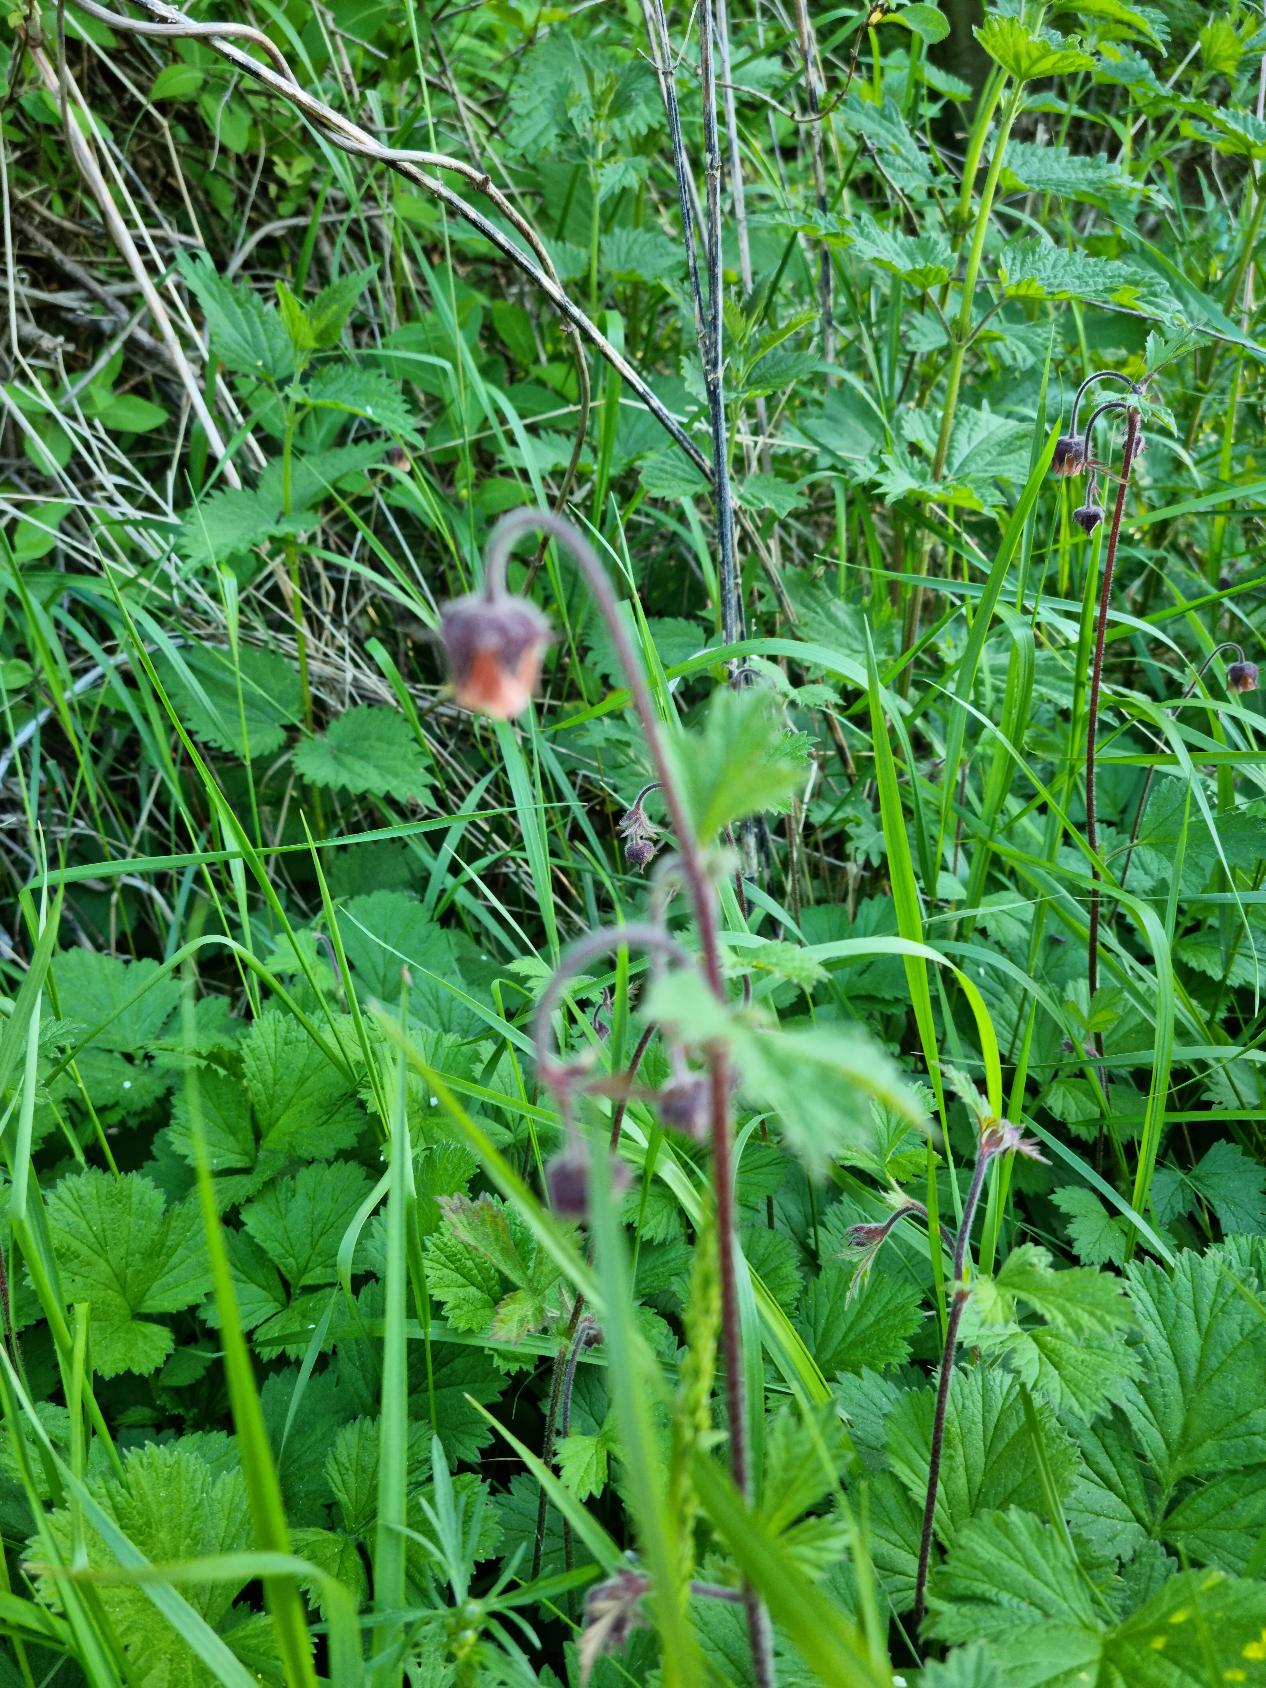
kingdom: Plantae
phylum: Tracheophyta
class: Magnoliopsida
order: Rosales
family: Rosaceae
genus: Geum
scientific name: Geum rivale
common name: Eng-nellikerod
